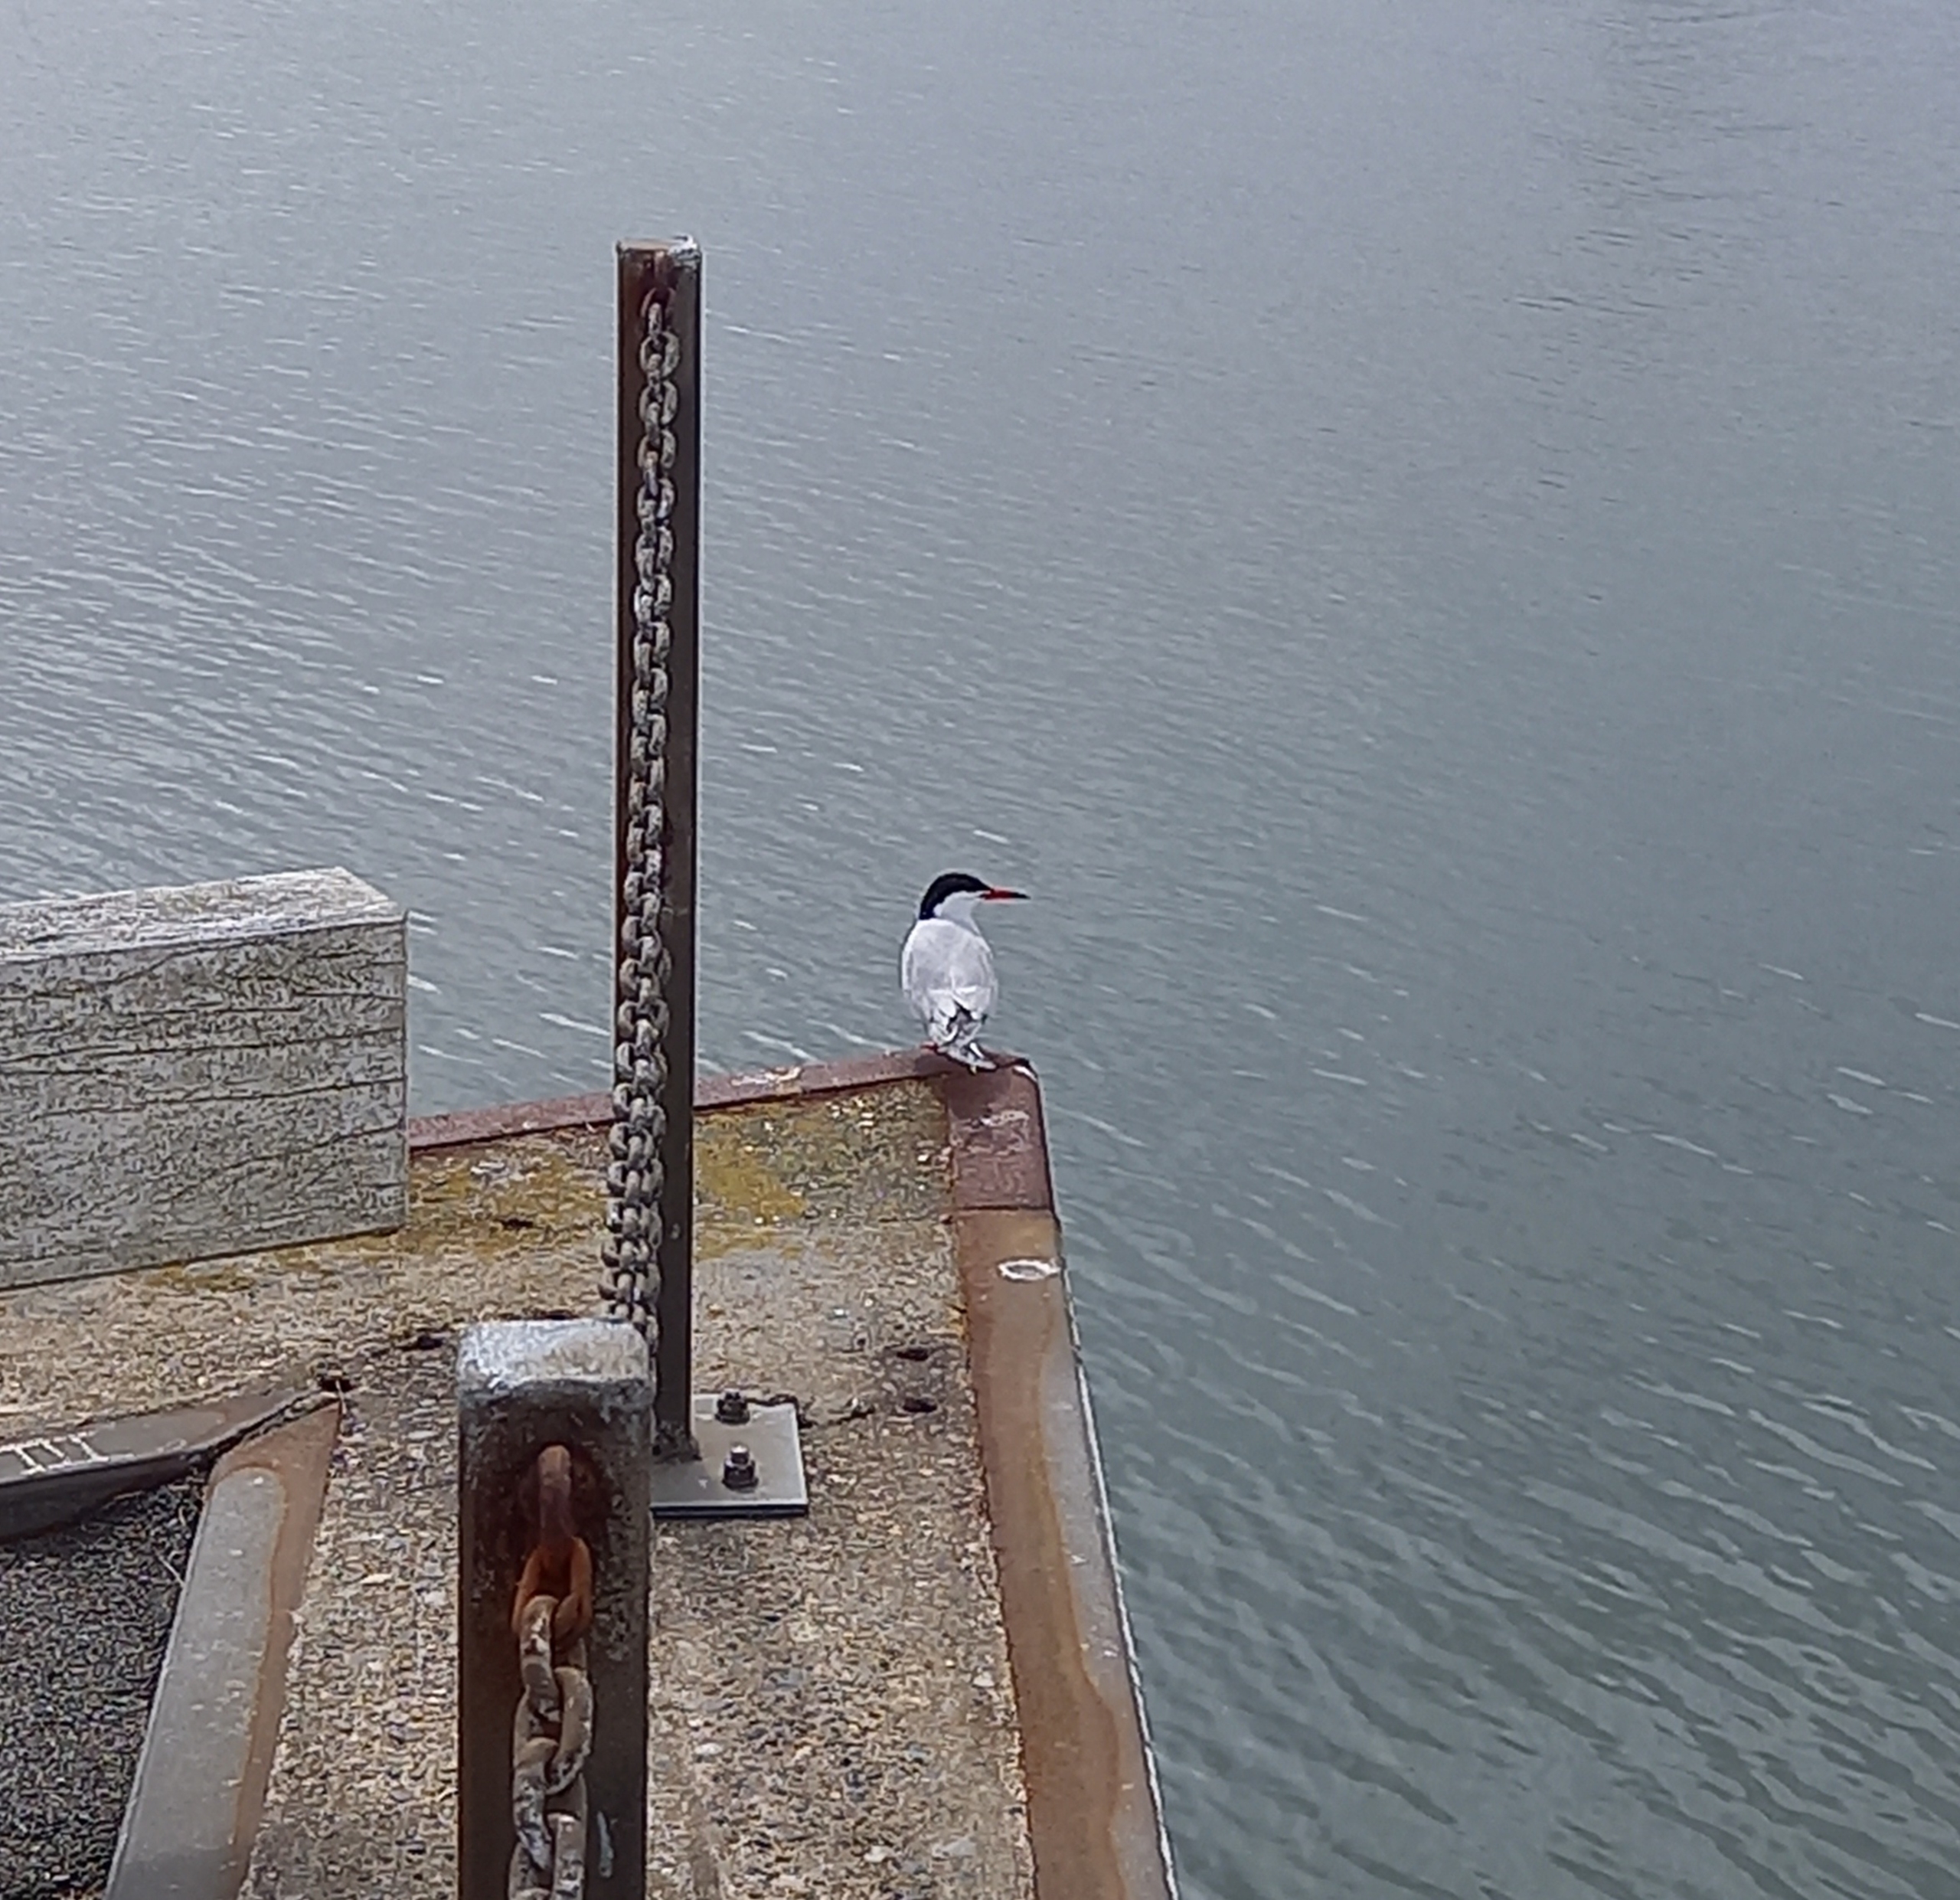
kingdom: Animalia
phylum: Chordata
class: Aves
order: Charadriiformes
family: Laridae
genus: Sterna
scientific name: Sterna hirundo
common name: Fjordterne
